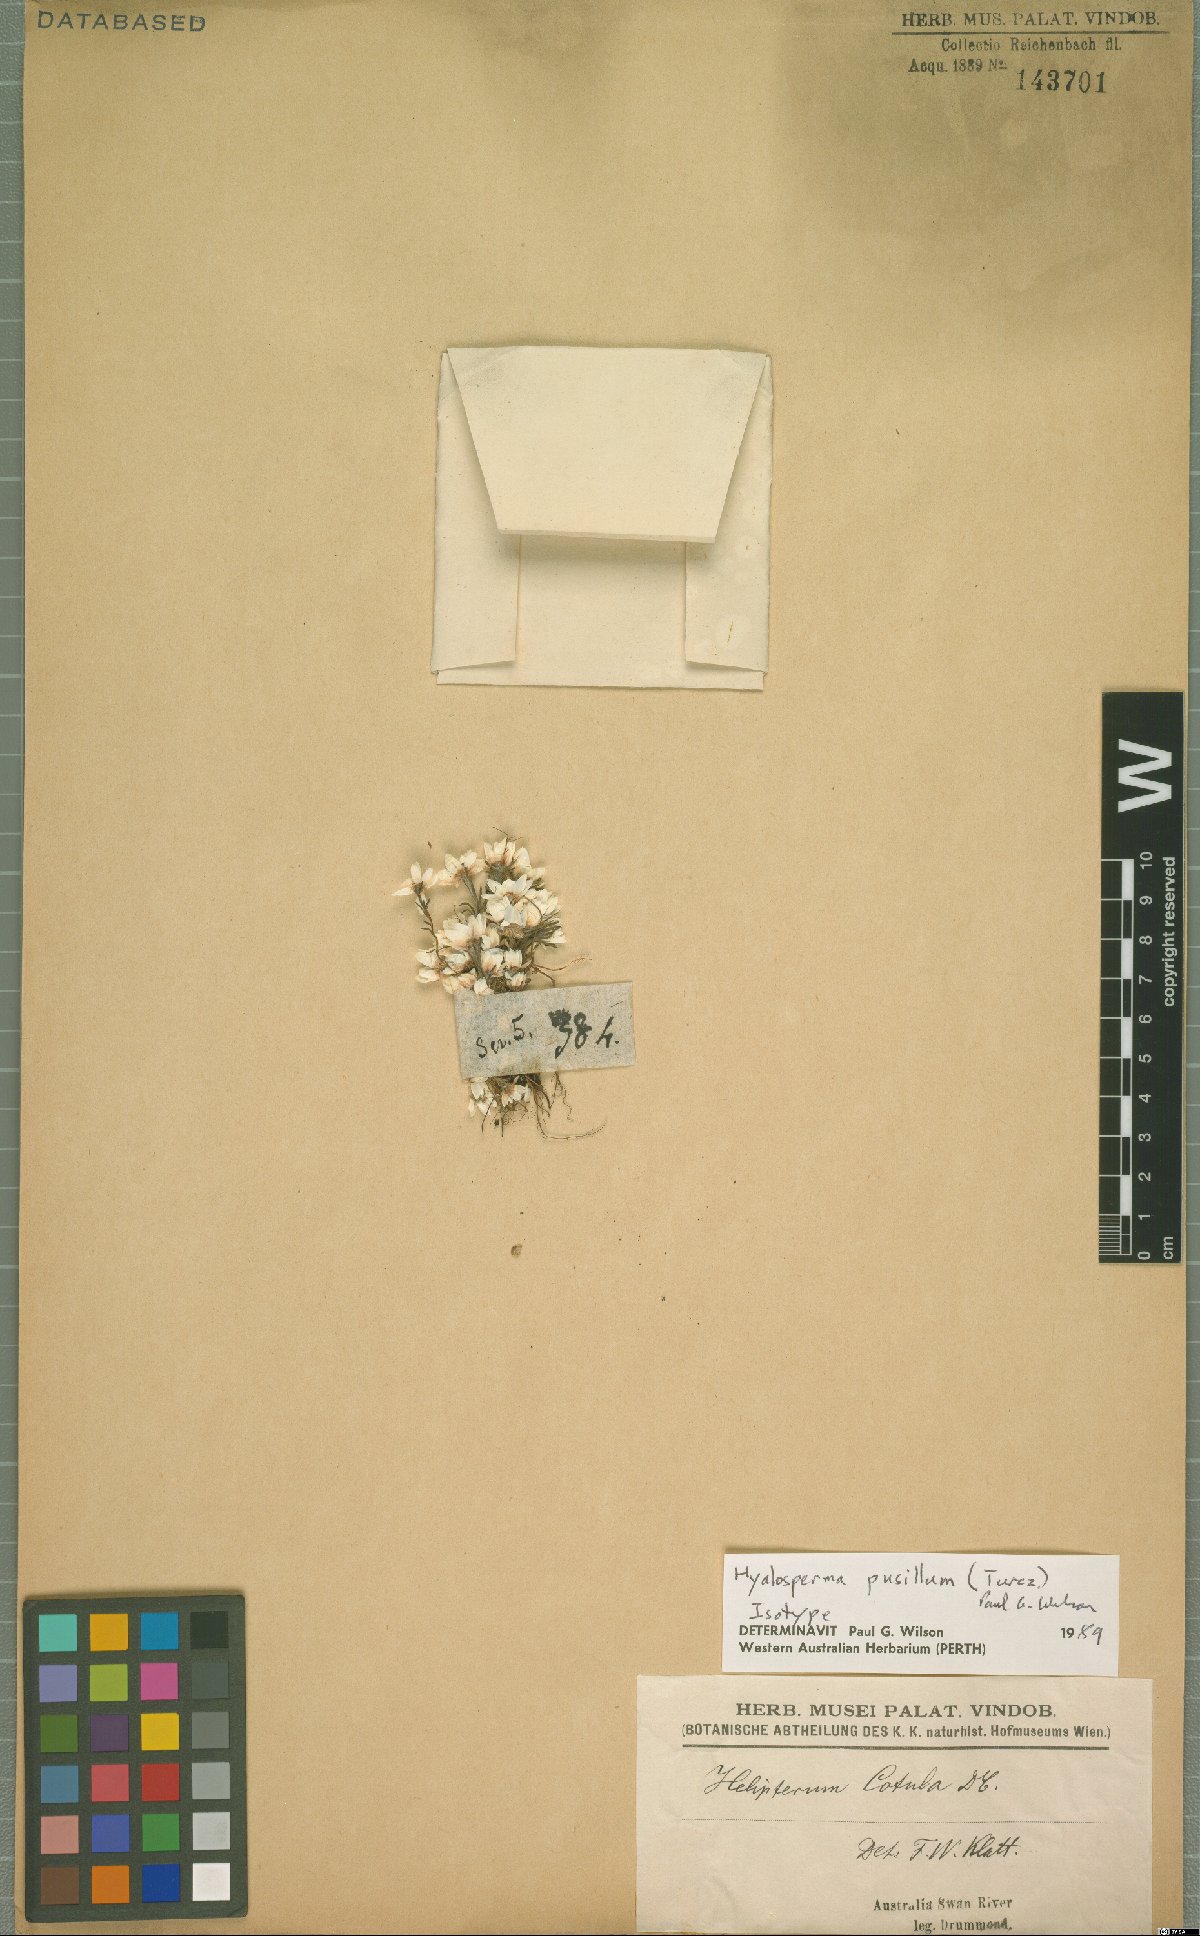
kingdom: Plantae
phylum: Tracheophyta
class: Magnoliopsida
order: Asterales
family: Asteraceae
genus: Hyalosperma
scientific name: Hyalosperma pusillum
